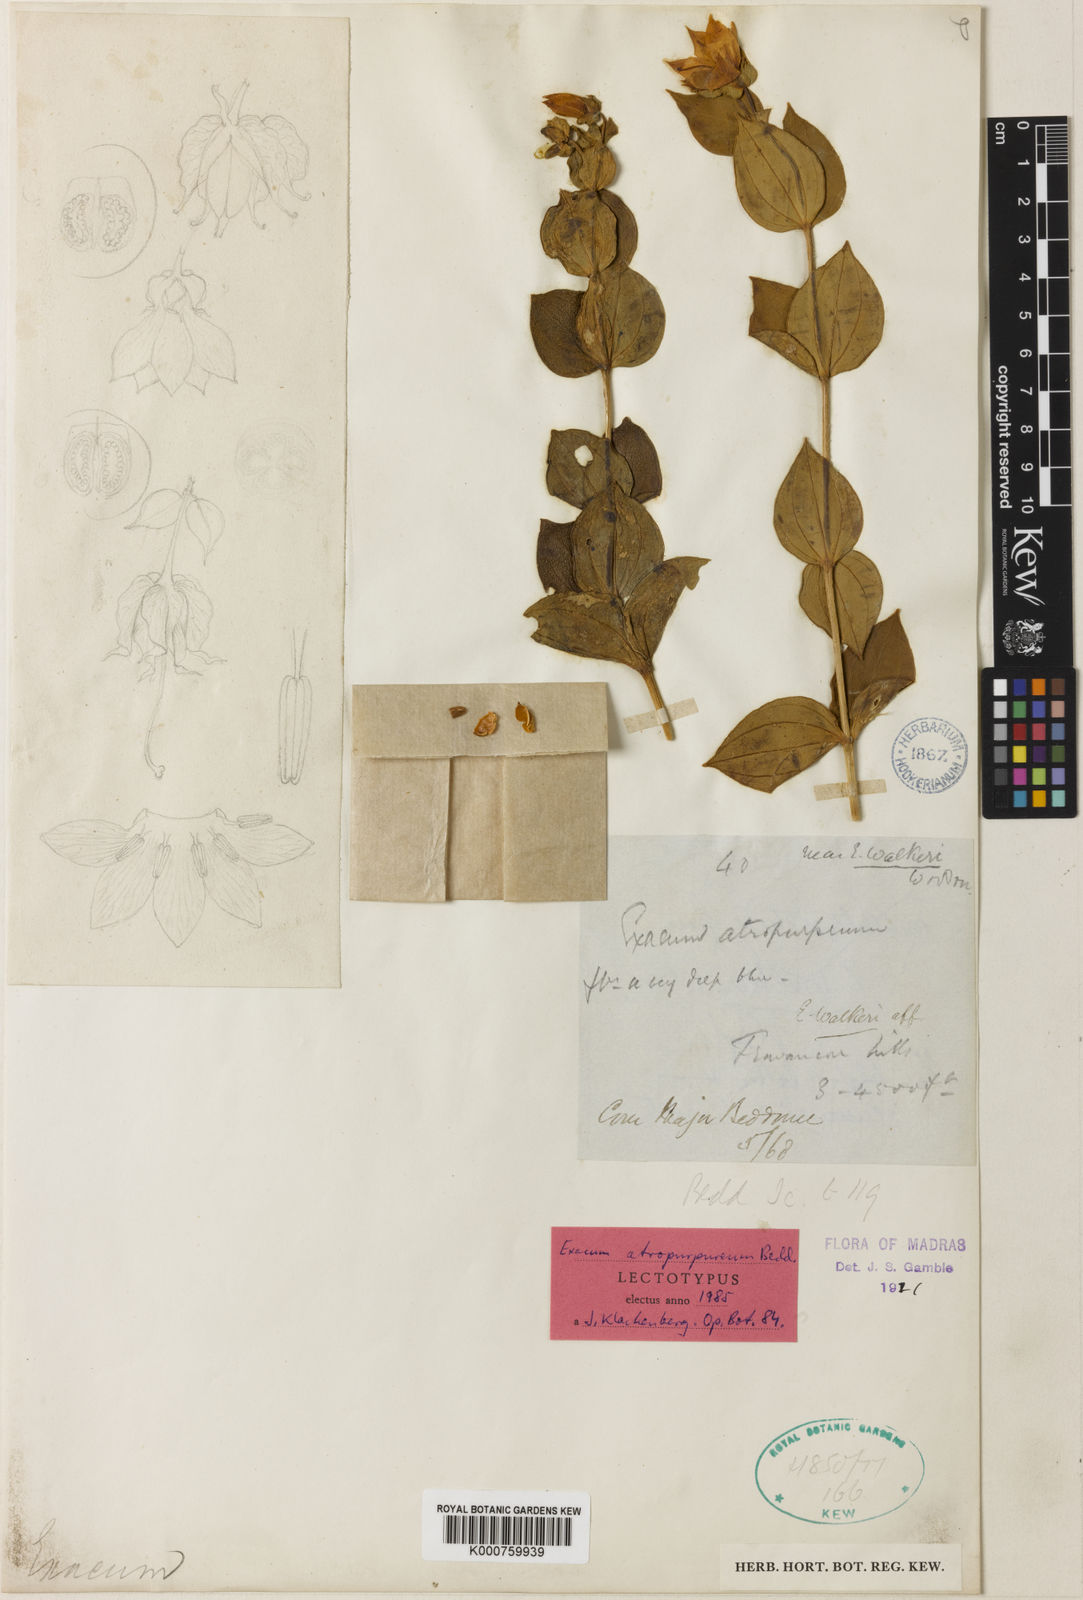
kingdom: Plantae
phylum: Tracheophyta
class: Magnoliopsida
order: Gentianales
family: Gentianaceae
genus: Exacum
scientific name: Exacum atropurpureum
